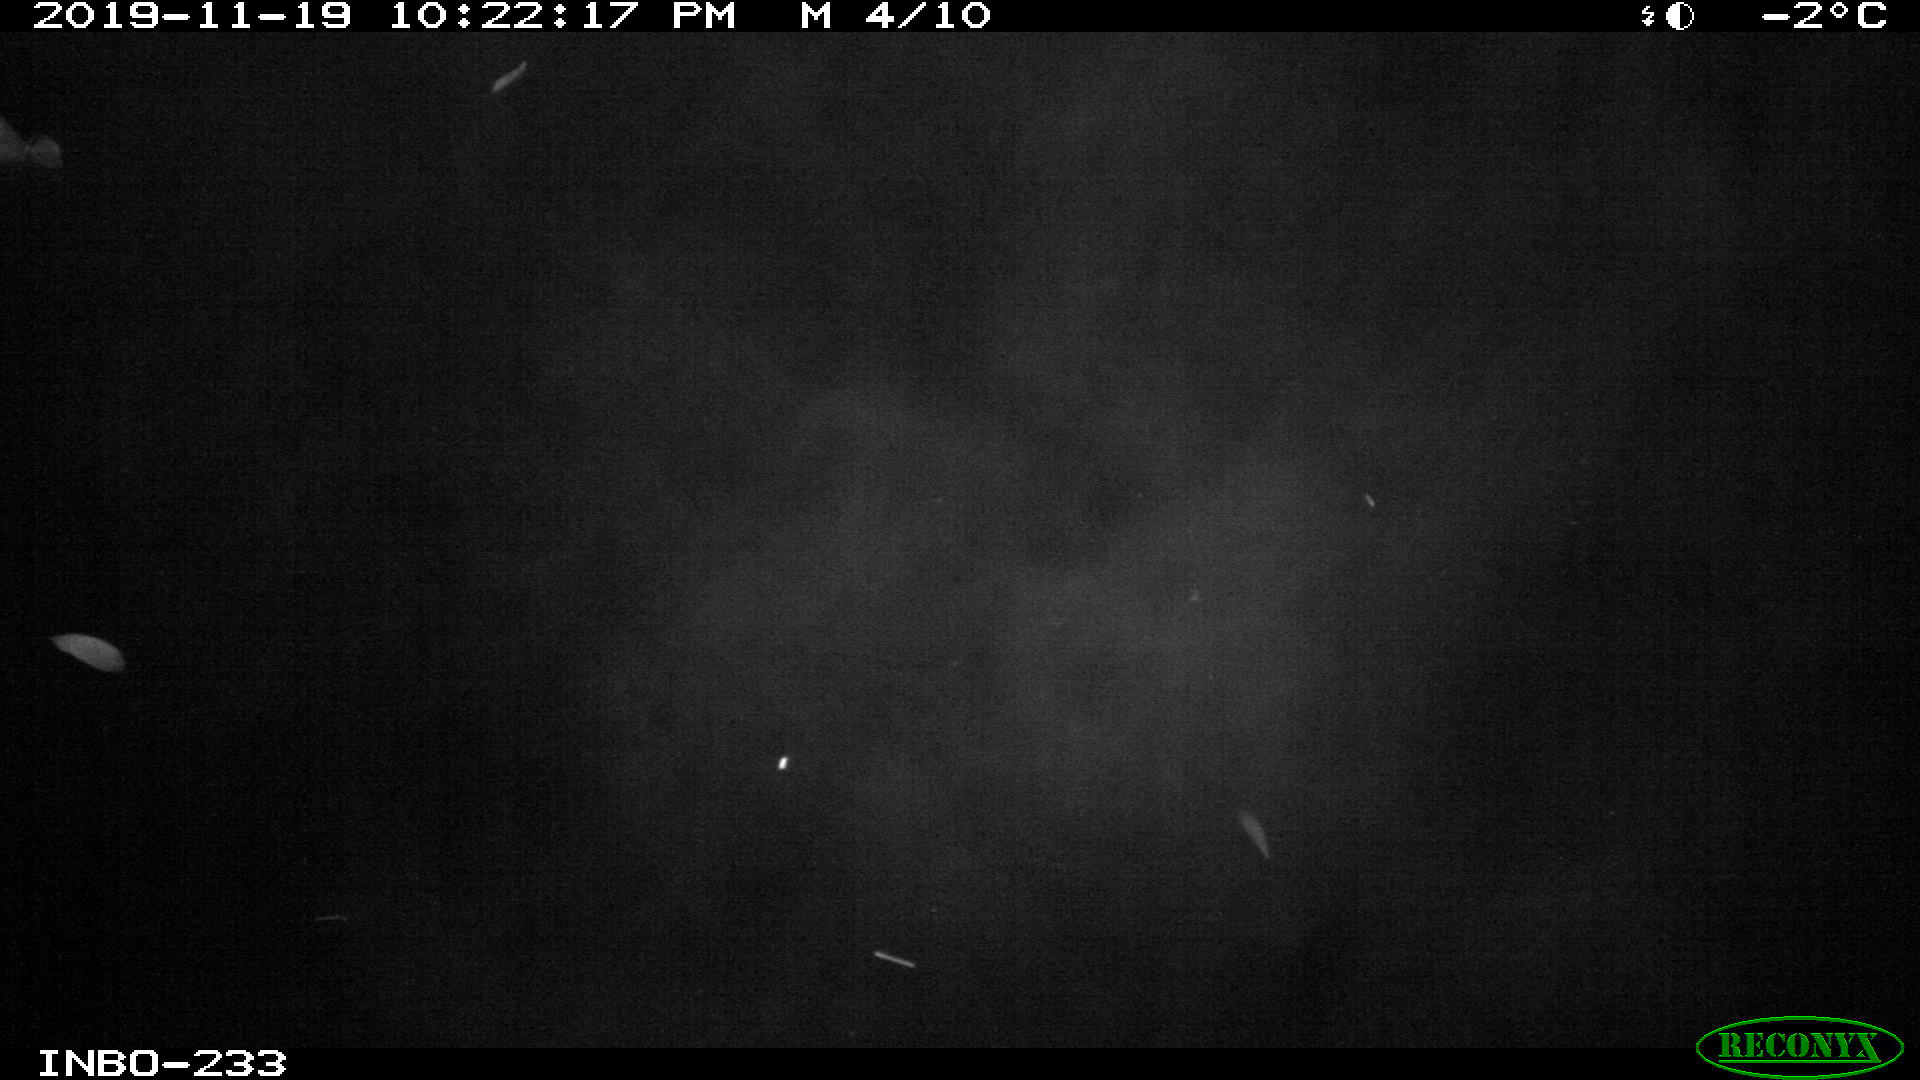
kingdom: Animalia
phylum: Chordata
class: Aves
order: Anseriformes
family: Anatidae
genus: Anas
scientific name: Anas platyrhynchos
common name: Mallard
